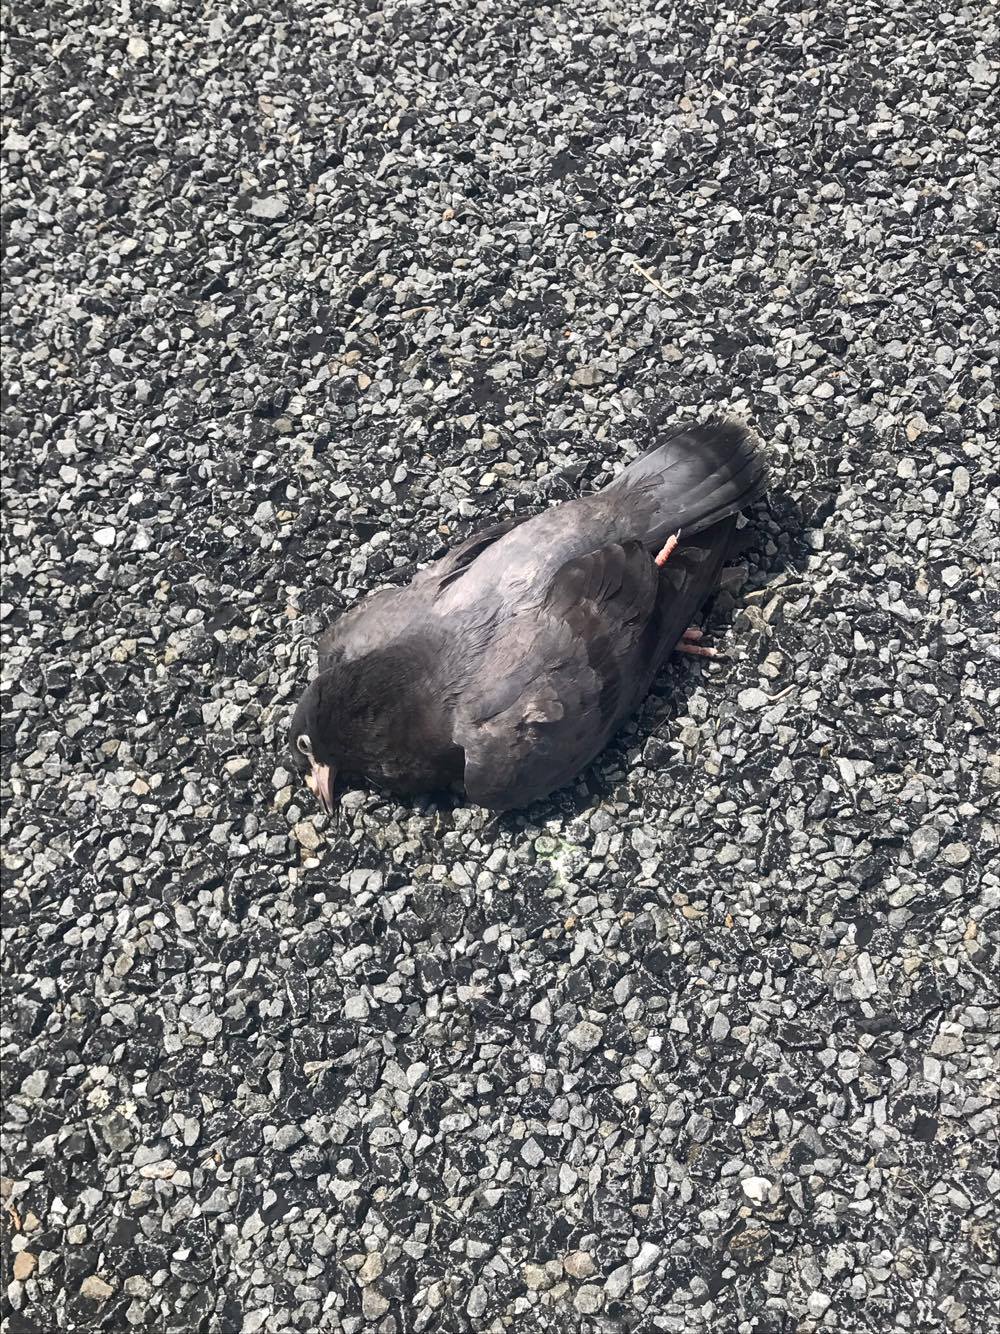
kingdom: Animalia
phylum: Chordata
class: Aves
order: Columbiformes
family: Columbidae
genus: Columba
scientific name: Columba livia
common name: Rock pigeon
